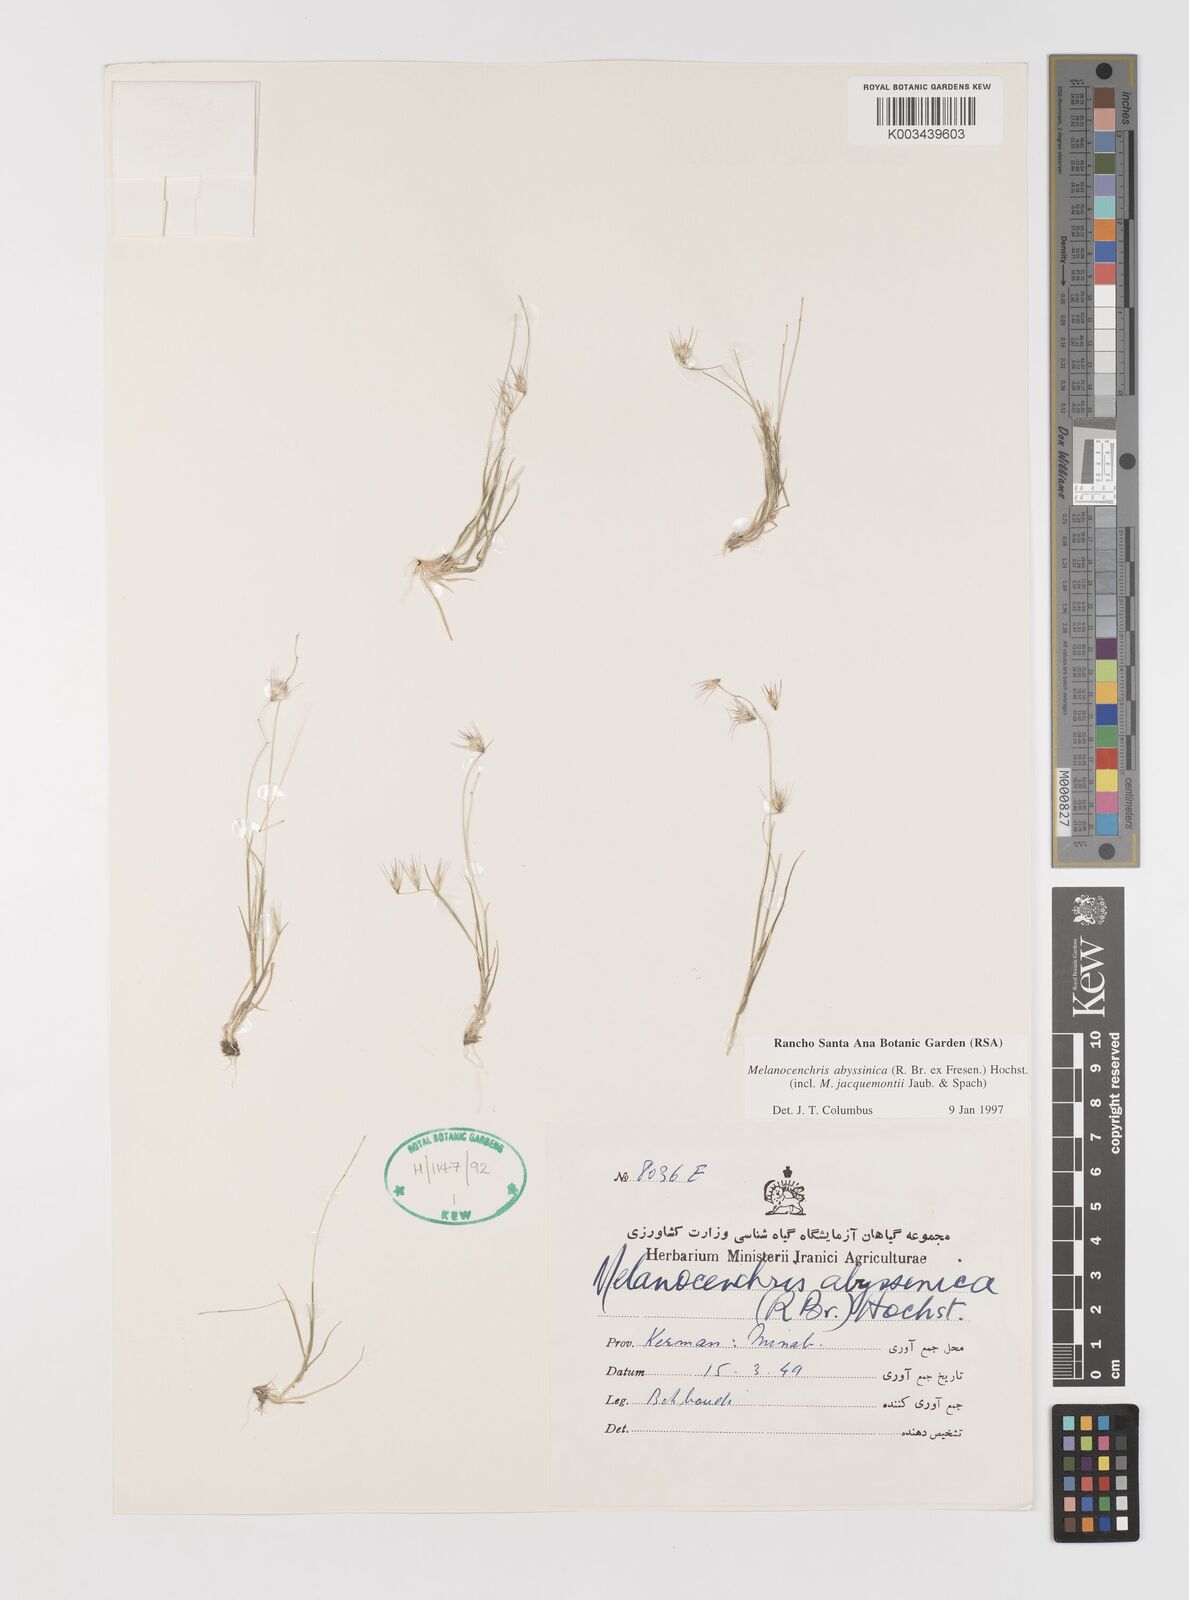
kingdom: Plantae
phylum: Tracheophyta
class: Liliopsida
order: Poales
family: Poaceae
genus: Melanocenchris
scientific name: Melanocenchris abyssinica
